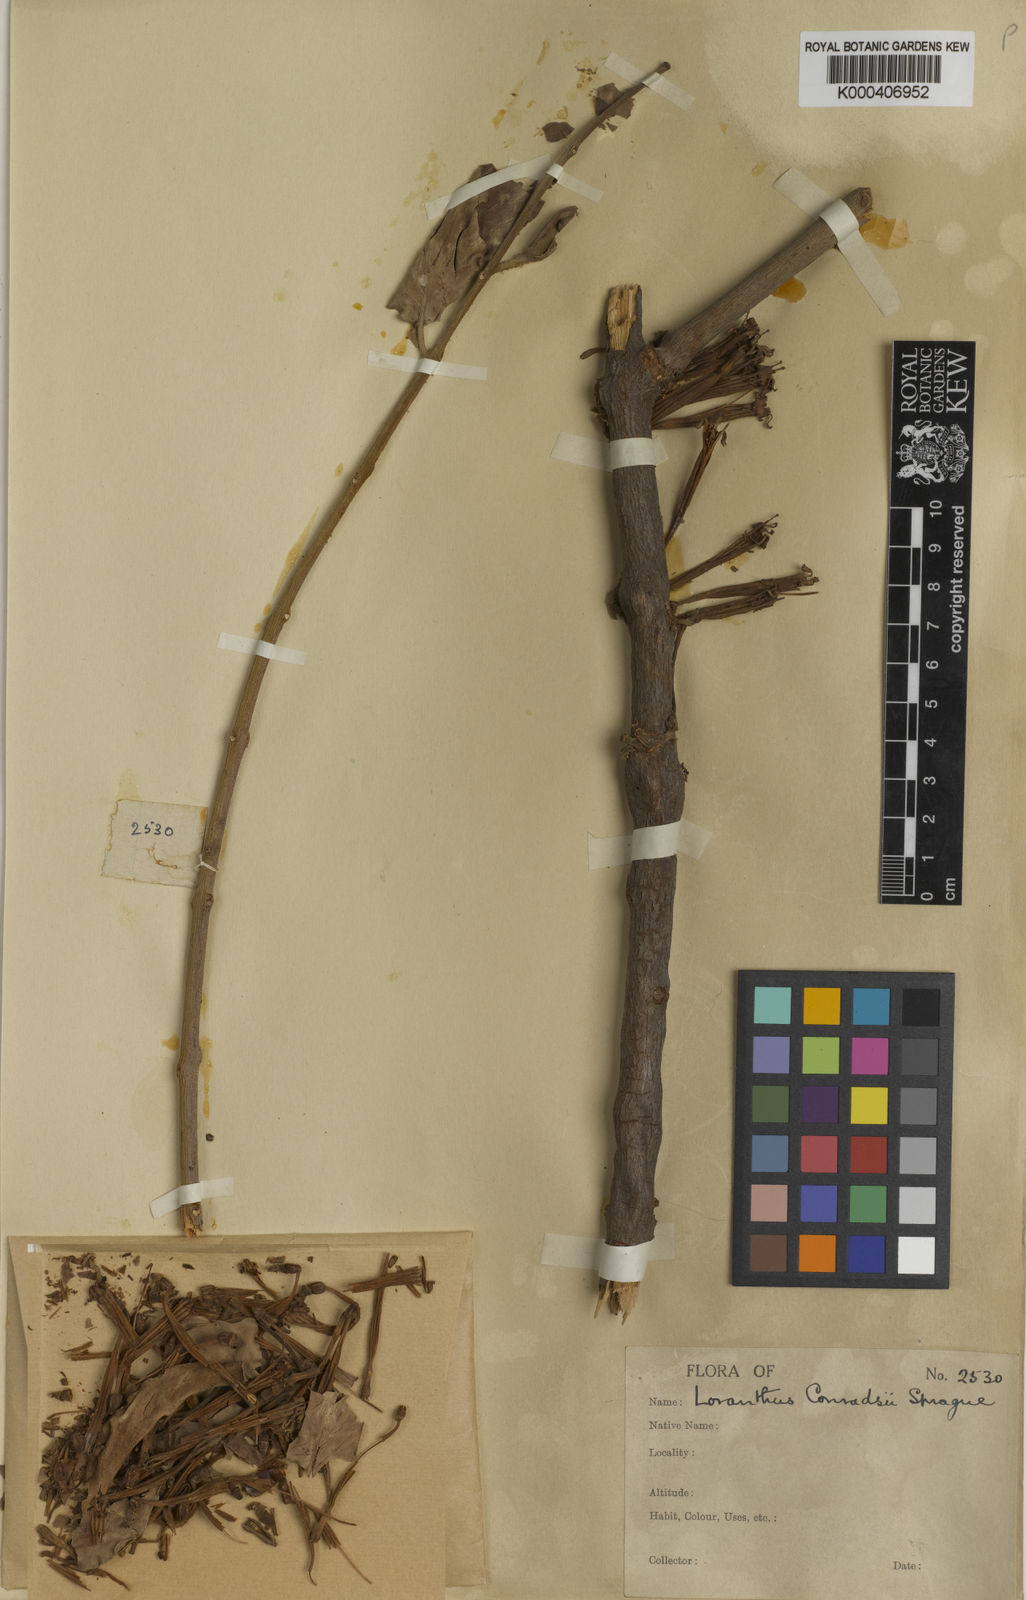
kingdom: Plantae
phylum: Tracheophyta
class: Magnoliopsida
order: Santalales
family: Loranthaceae
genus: Tapinanthus
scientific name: Tapinanthus buvumae
